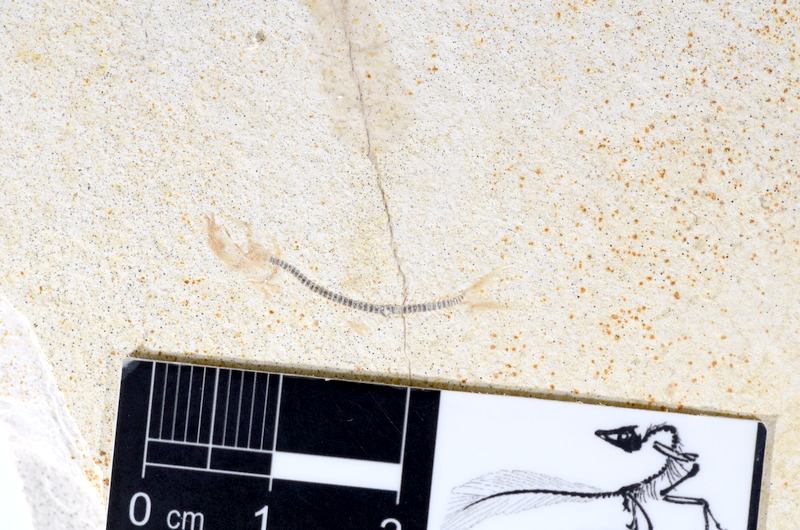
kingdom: Animalia
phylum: Chordata
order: Salmoniformes
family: Orthogonikleithridae
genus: Orthogonikleithrus
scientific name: Orthogonikleithrus hoelli
